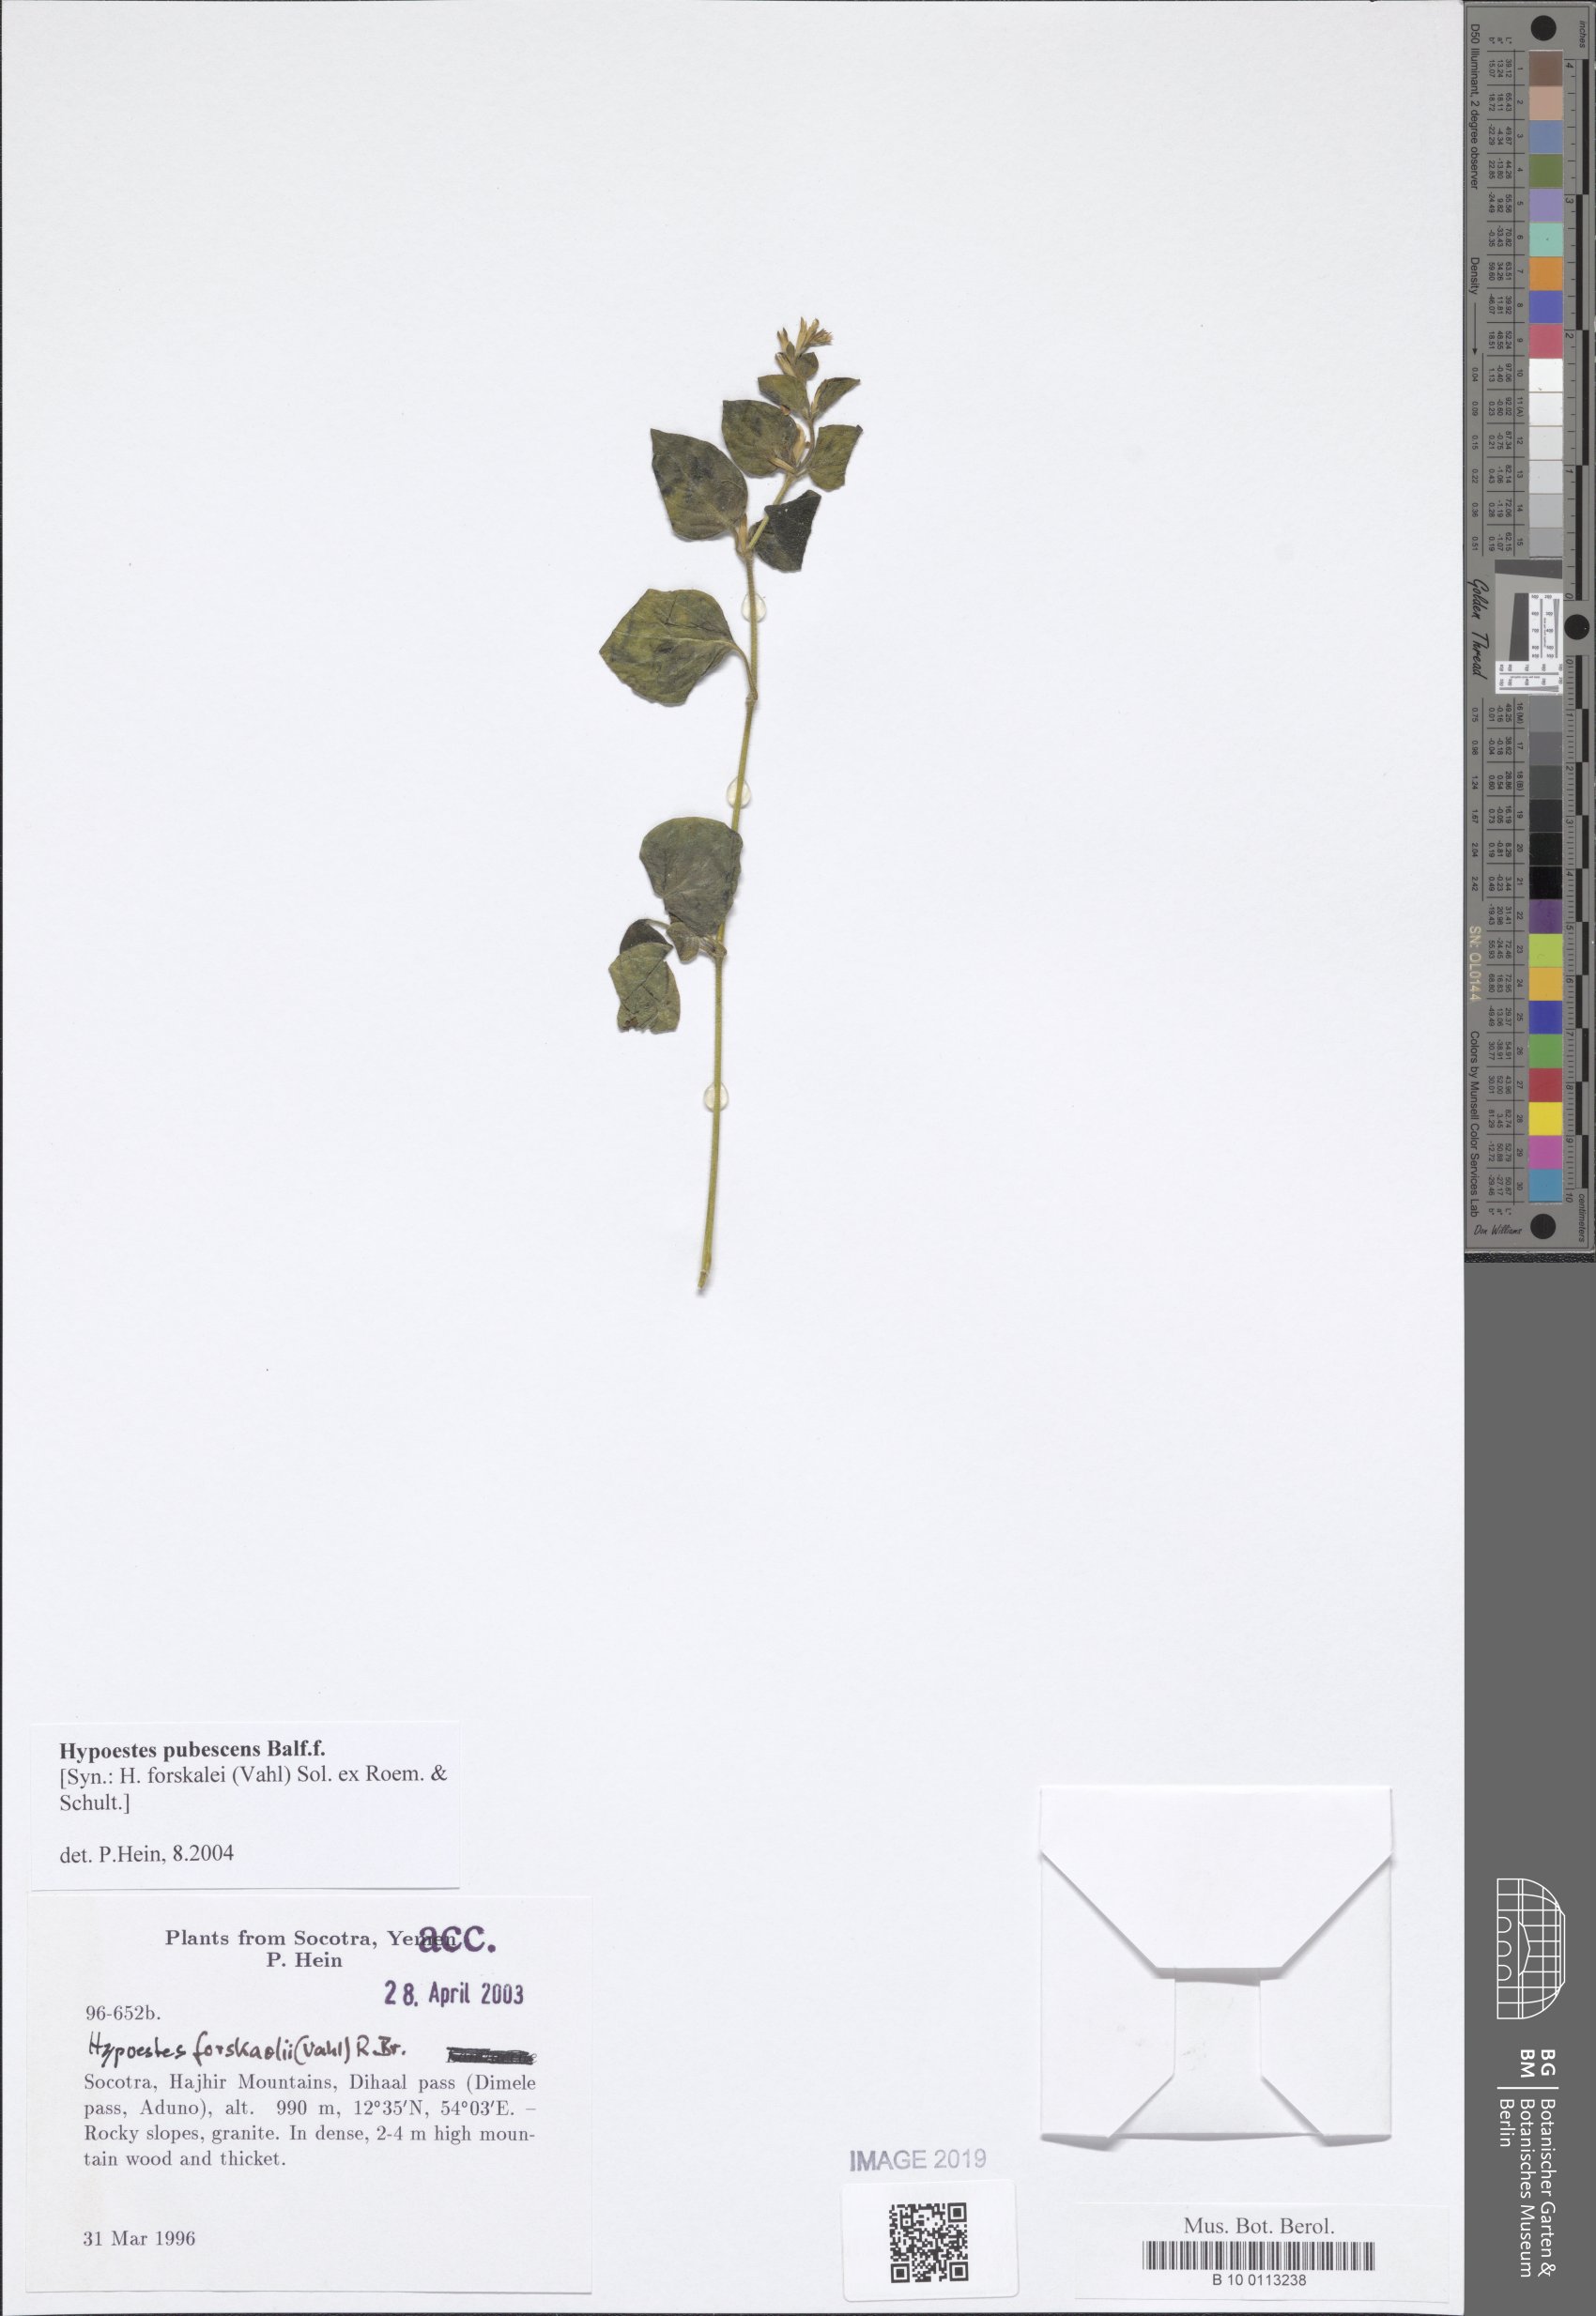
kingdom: Plantae
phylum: Tracheophyta
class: Magnoliopsida
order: Lamiales
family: Acanthaceae
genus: Hypoestes
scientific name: Hypoestes pubescens
